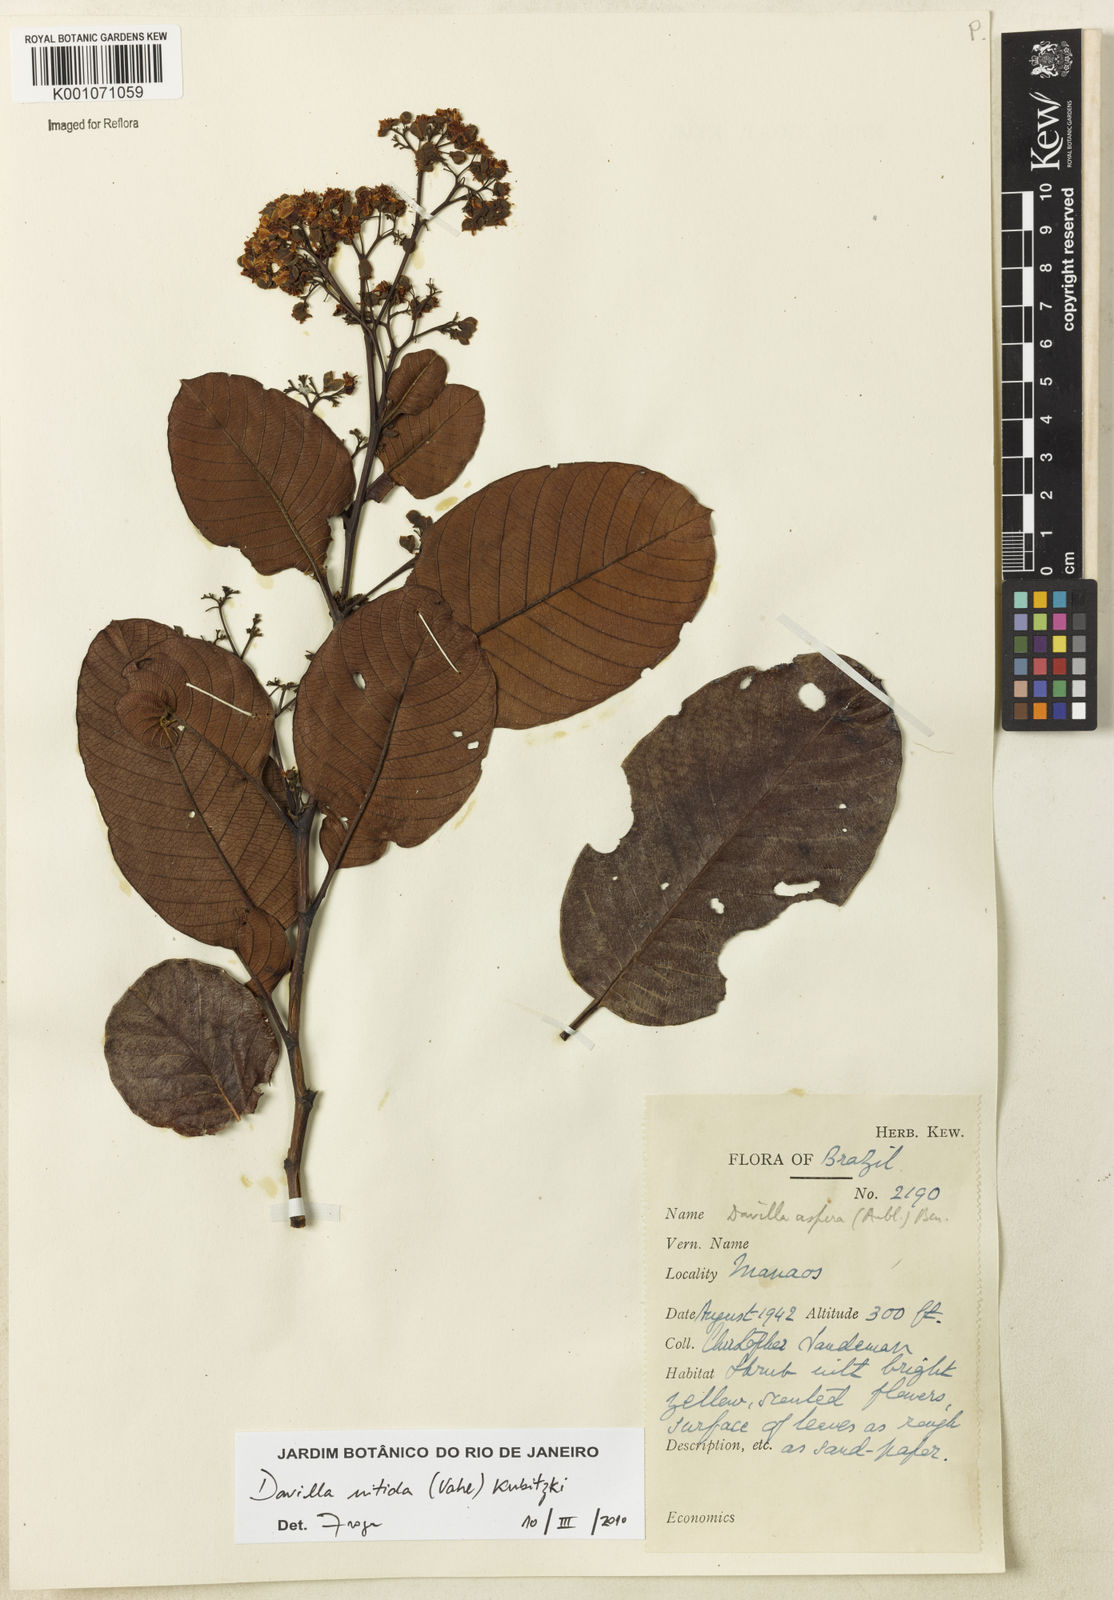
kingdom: Plantae
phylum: Tracheophyta
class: Magnoliopsida
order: Dilleniales
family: Dilleniaceae
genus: Davilla
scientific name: Davilla kunthii
